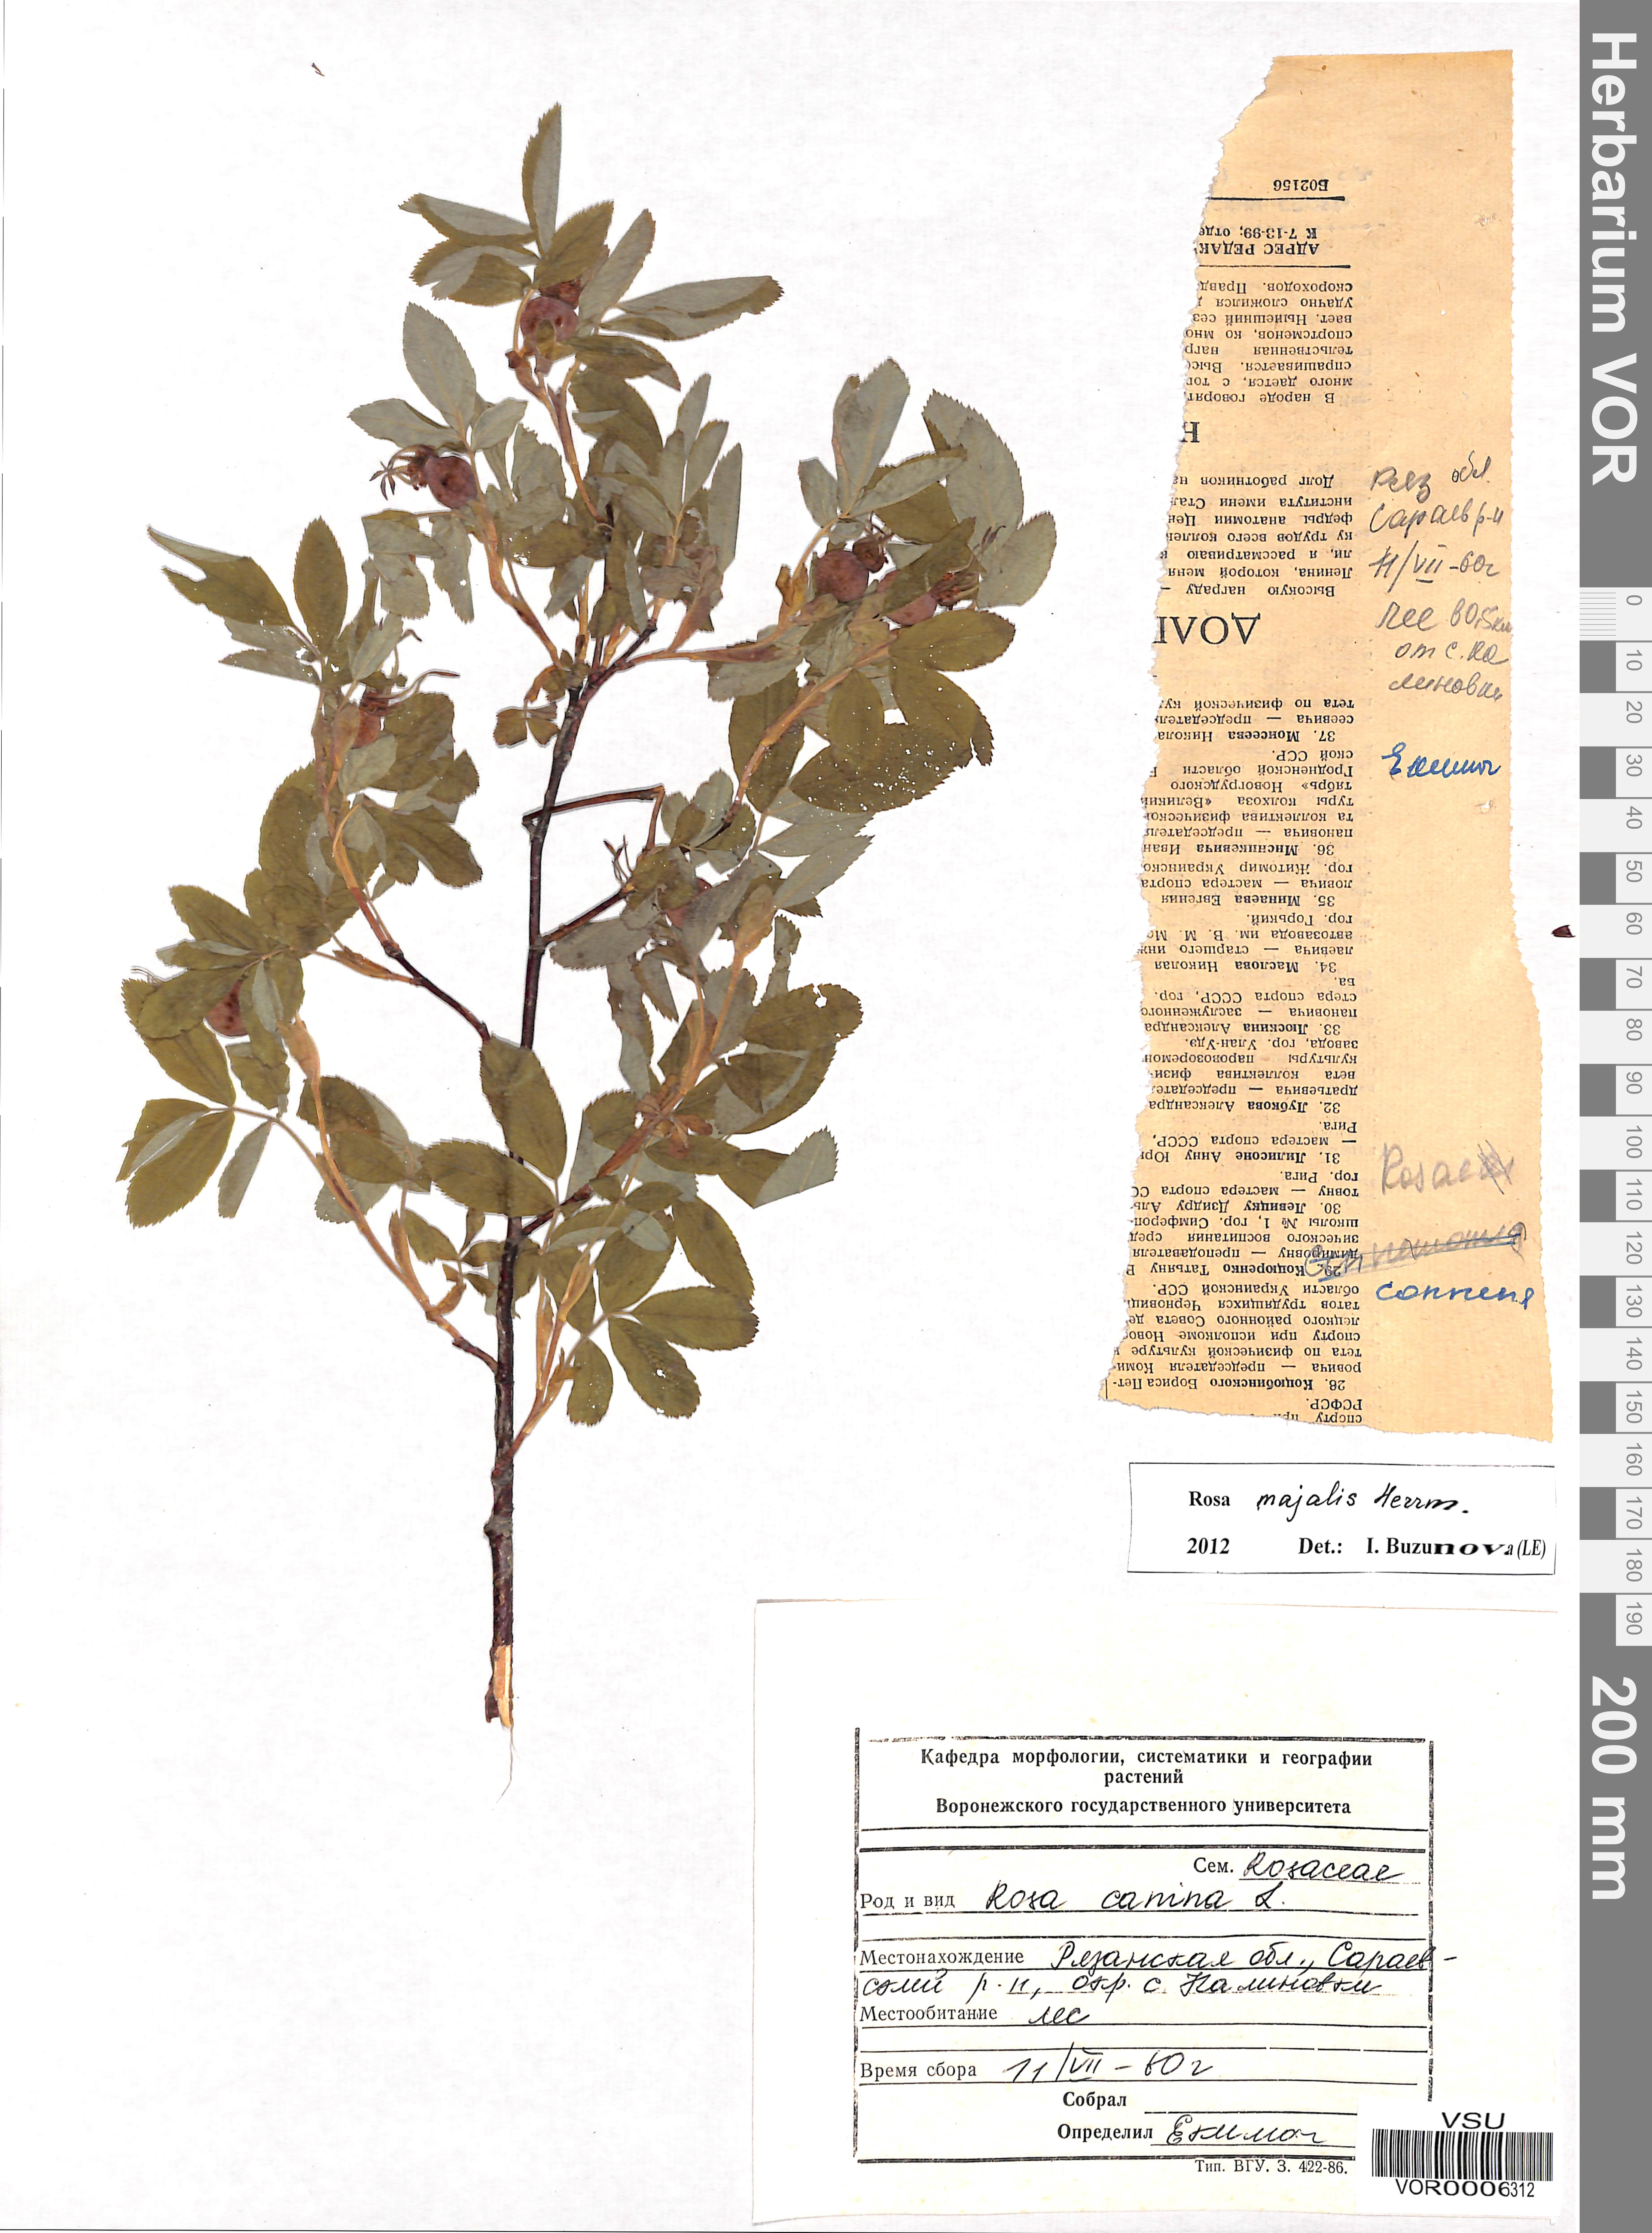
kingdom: Plantae
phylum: Tracheophyta
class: Magnoliopsida
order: Rosales
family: Rosaceae
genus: Rosa
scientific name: Rosa majalis
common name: Cinnamon rose
